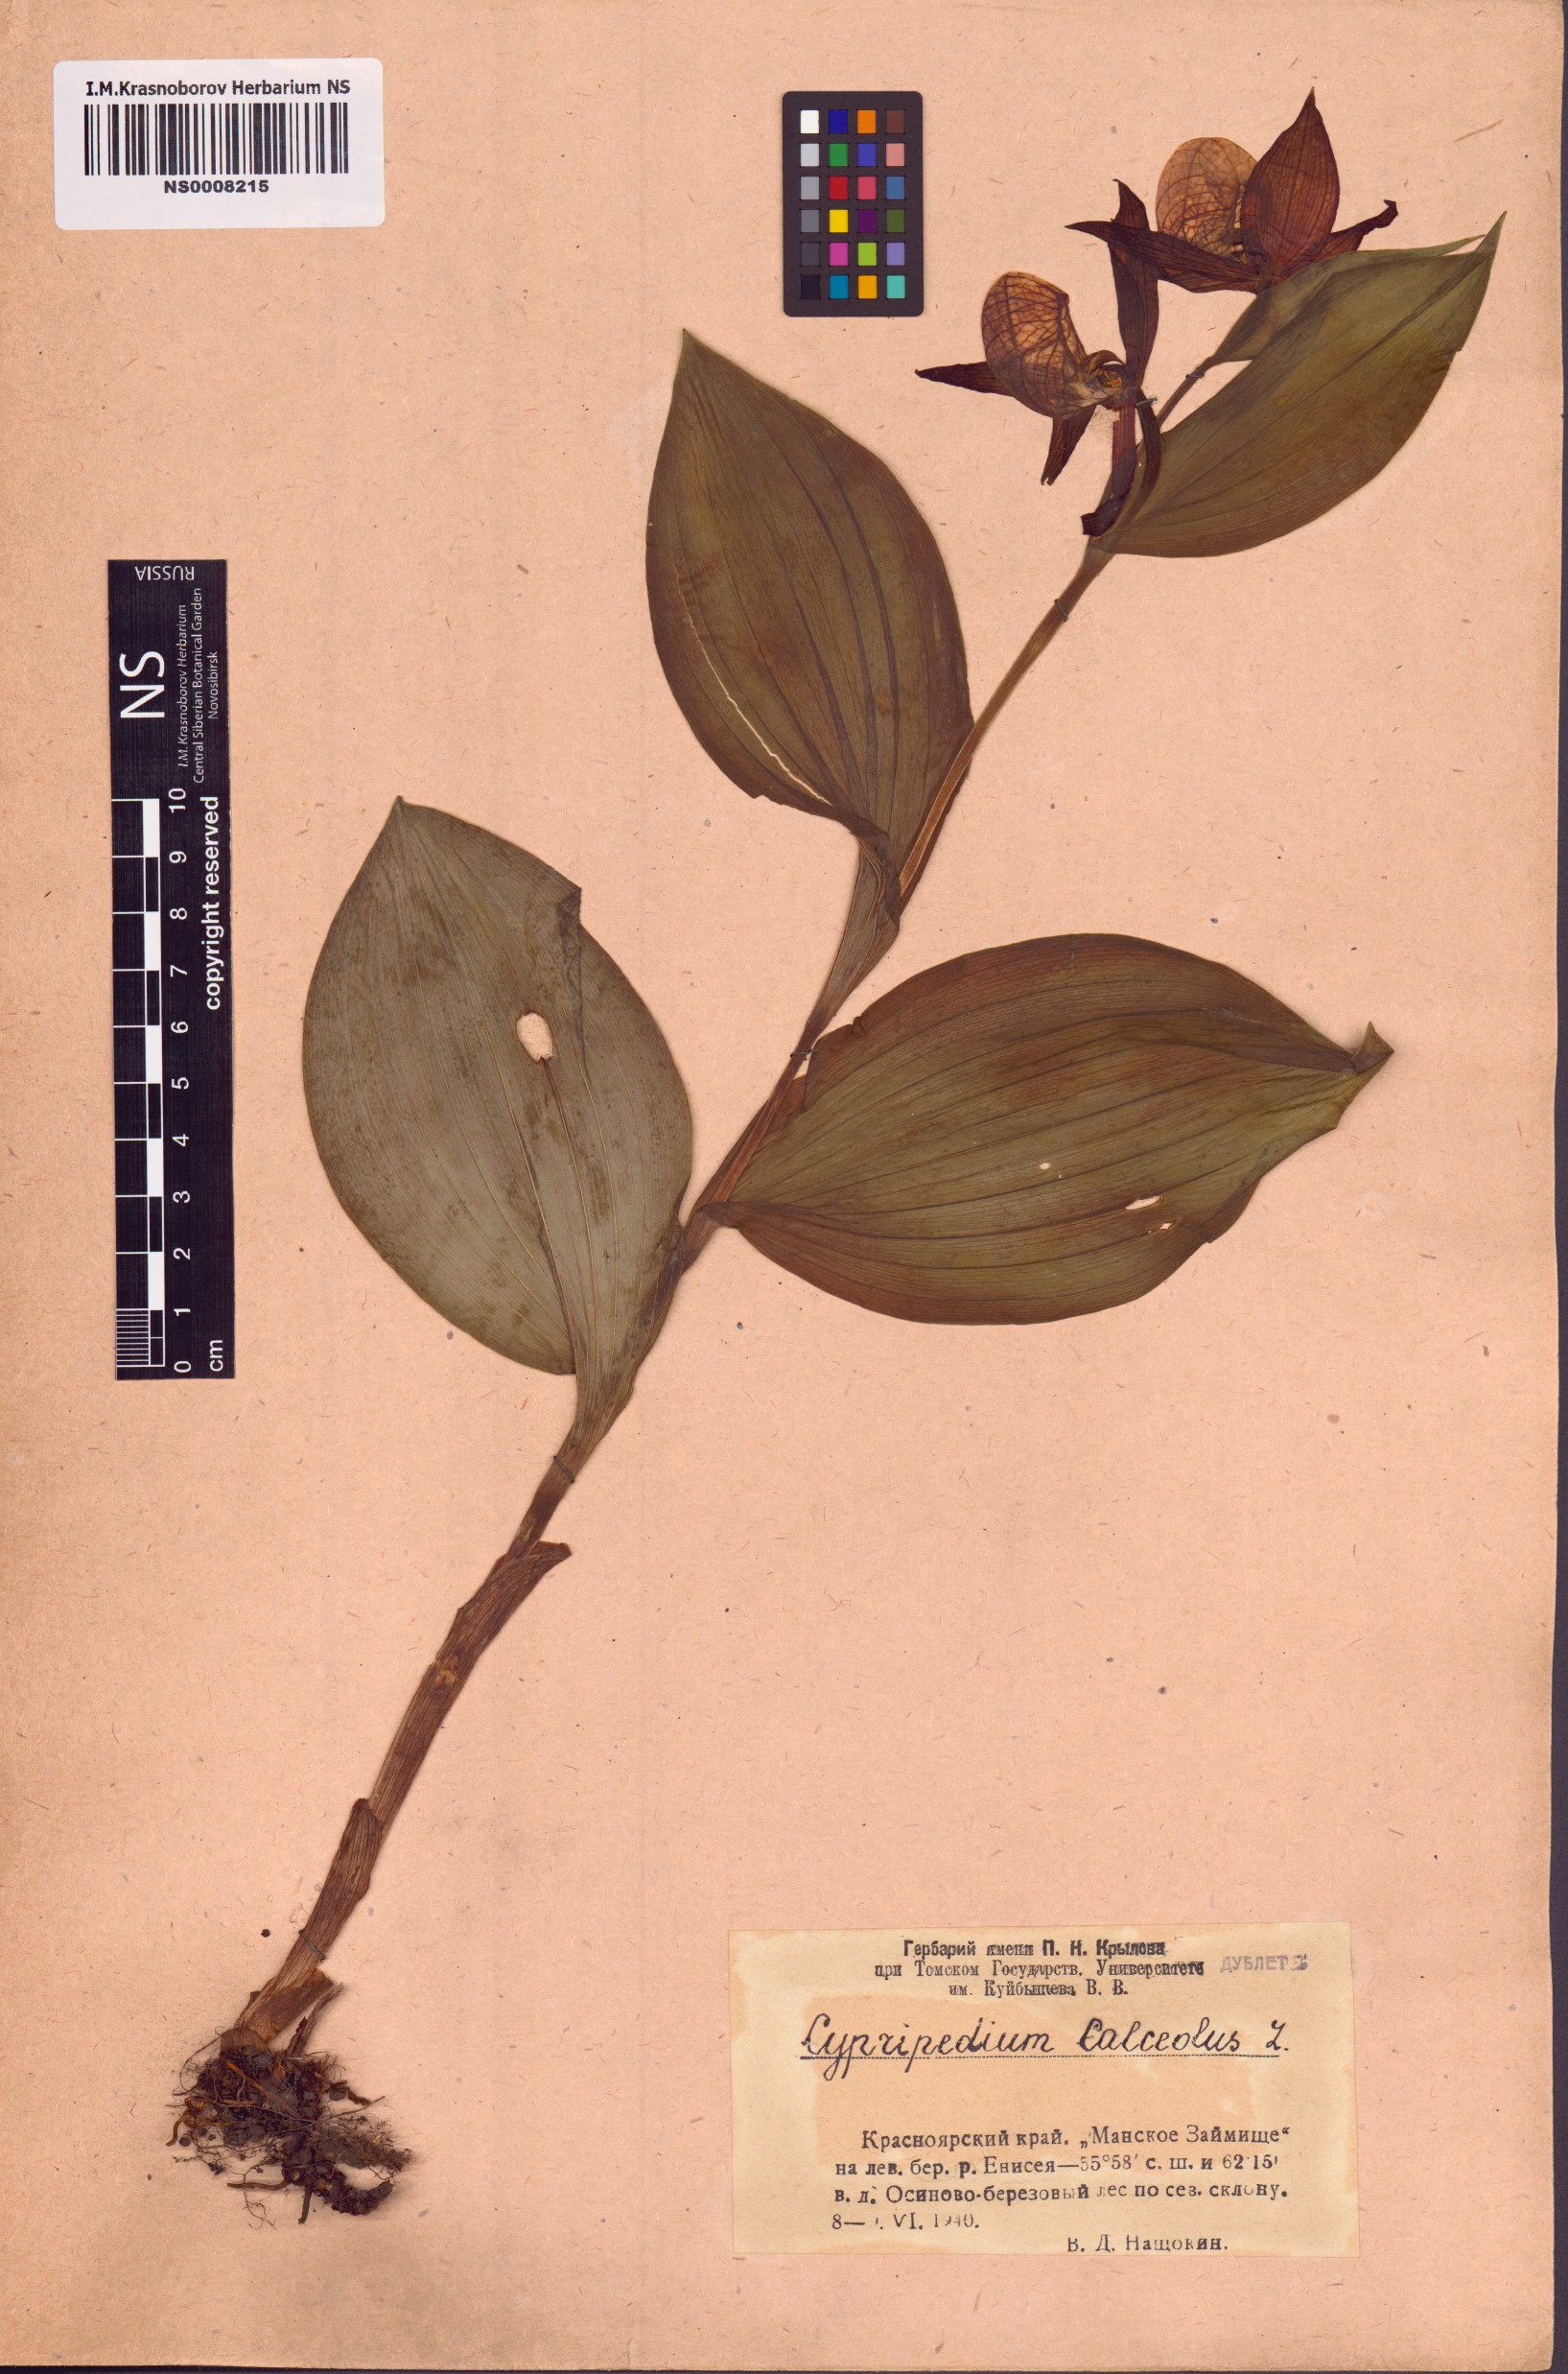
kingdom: Plantae
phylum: Tracheophyta
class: Liliopsida
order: Asparagales
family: Orchidaceae
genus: Cypripedium
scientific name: Cypripedium calceolus
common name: Lady's-slipper
